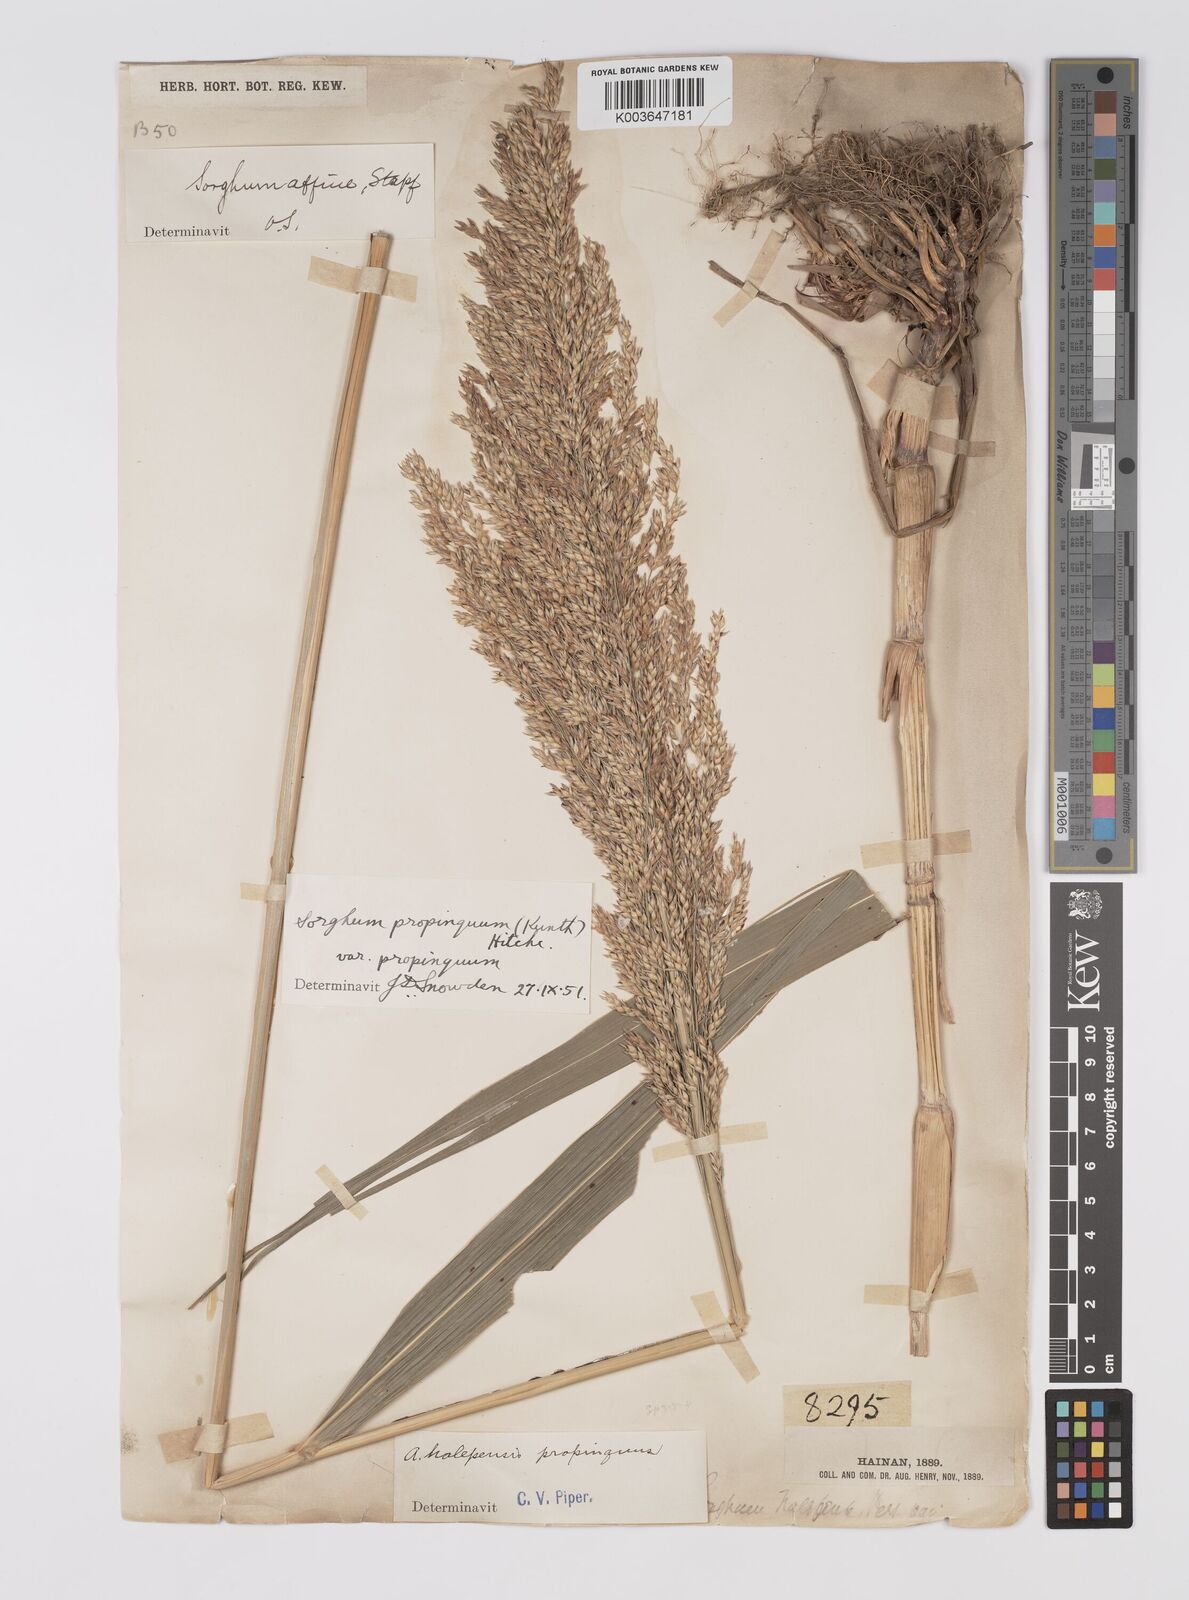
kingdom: Plantae
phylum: Tracheophyta
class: Liliopsida
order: Poales
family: Poaceae
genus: Sorghum
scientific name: Sorghum propinquum
